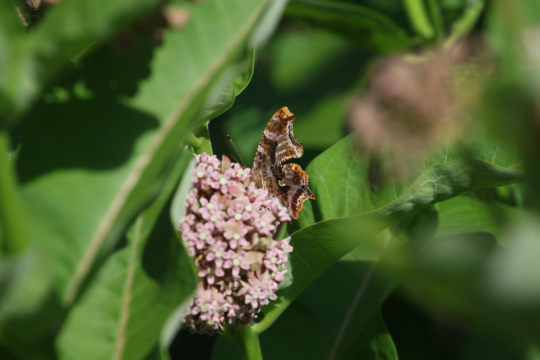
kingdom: Animalia
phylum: Arthropoda
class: Insecta
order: Lepidoptera
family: Nymphalidae
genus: Polygonia
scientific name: Polygonia comma
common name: Eastern Comma
